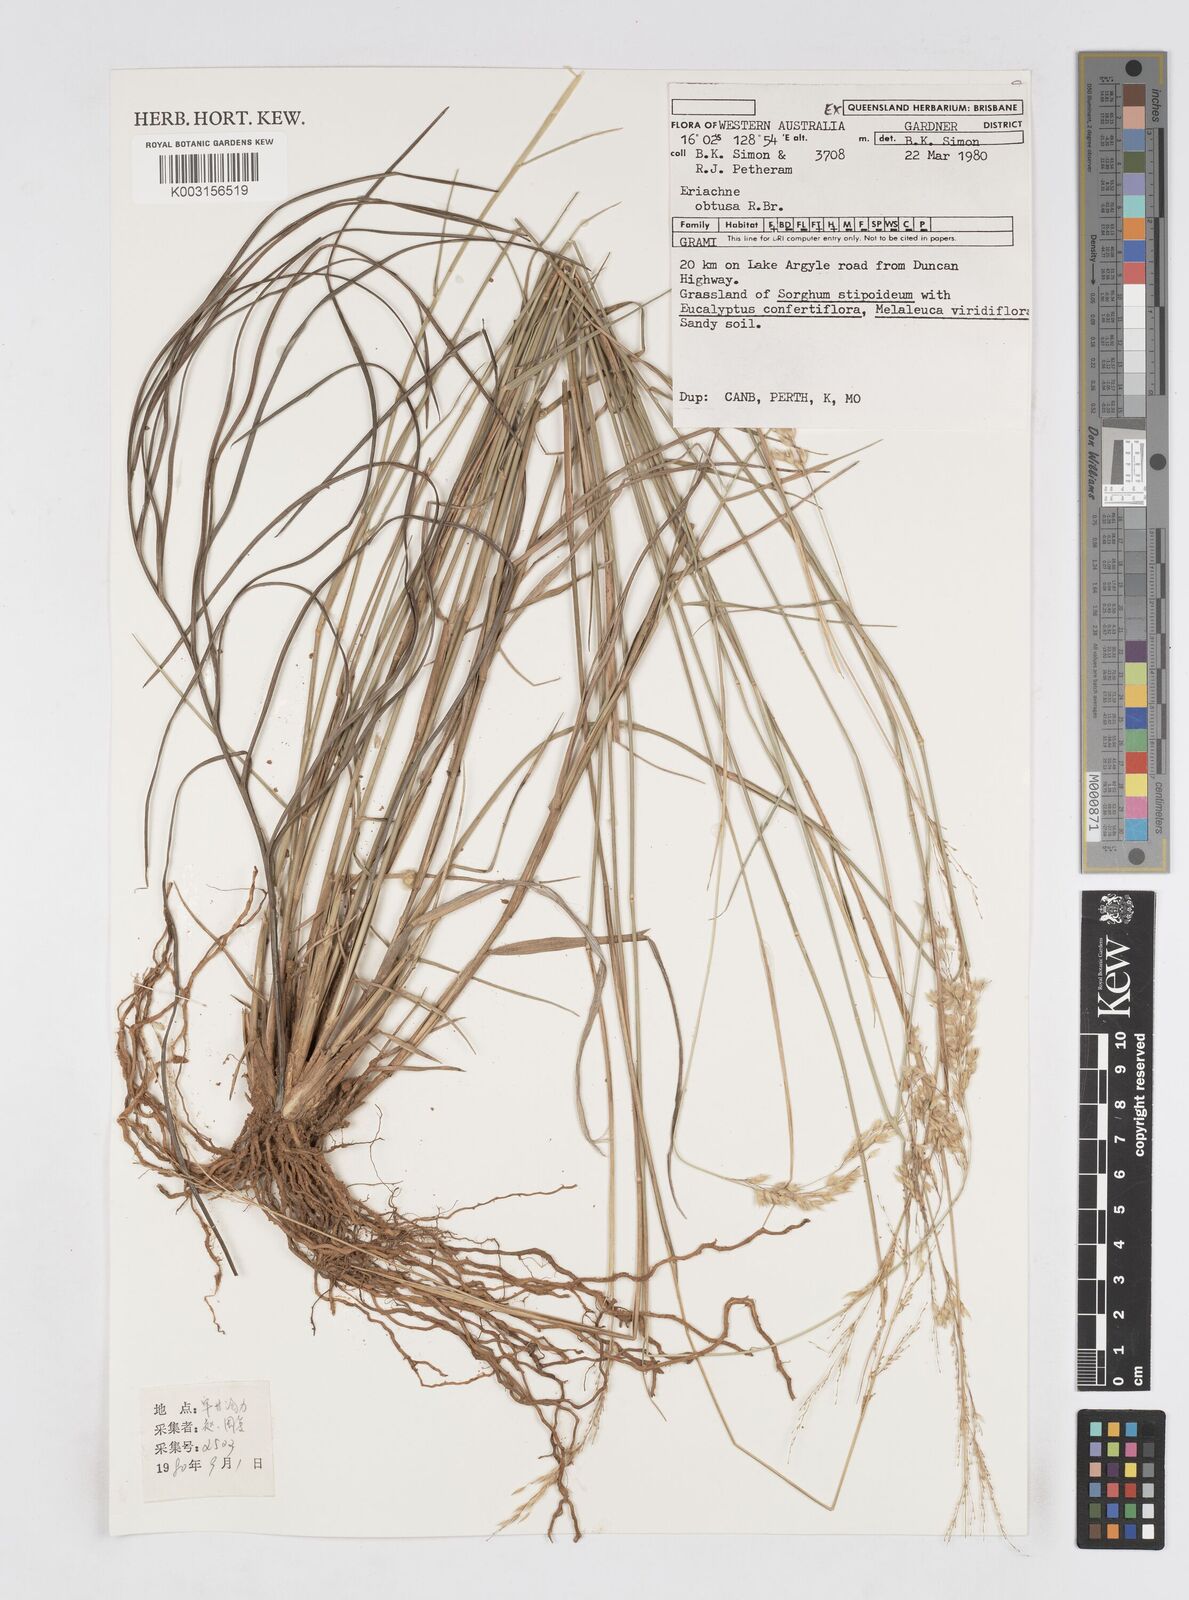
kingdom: Plantae
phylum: Tracheophyta
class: Liliopsida
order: Poales
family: Poaceae
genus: Eriachne
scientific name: Eriachne obtusa
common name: Northern wanderrie grass
